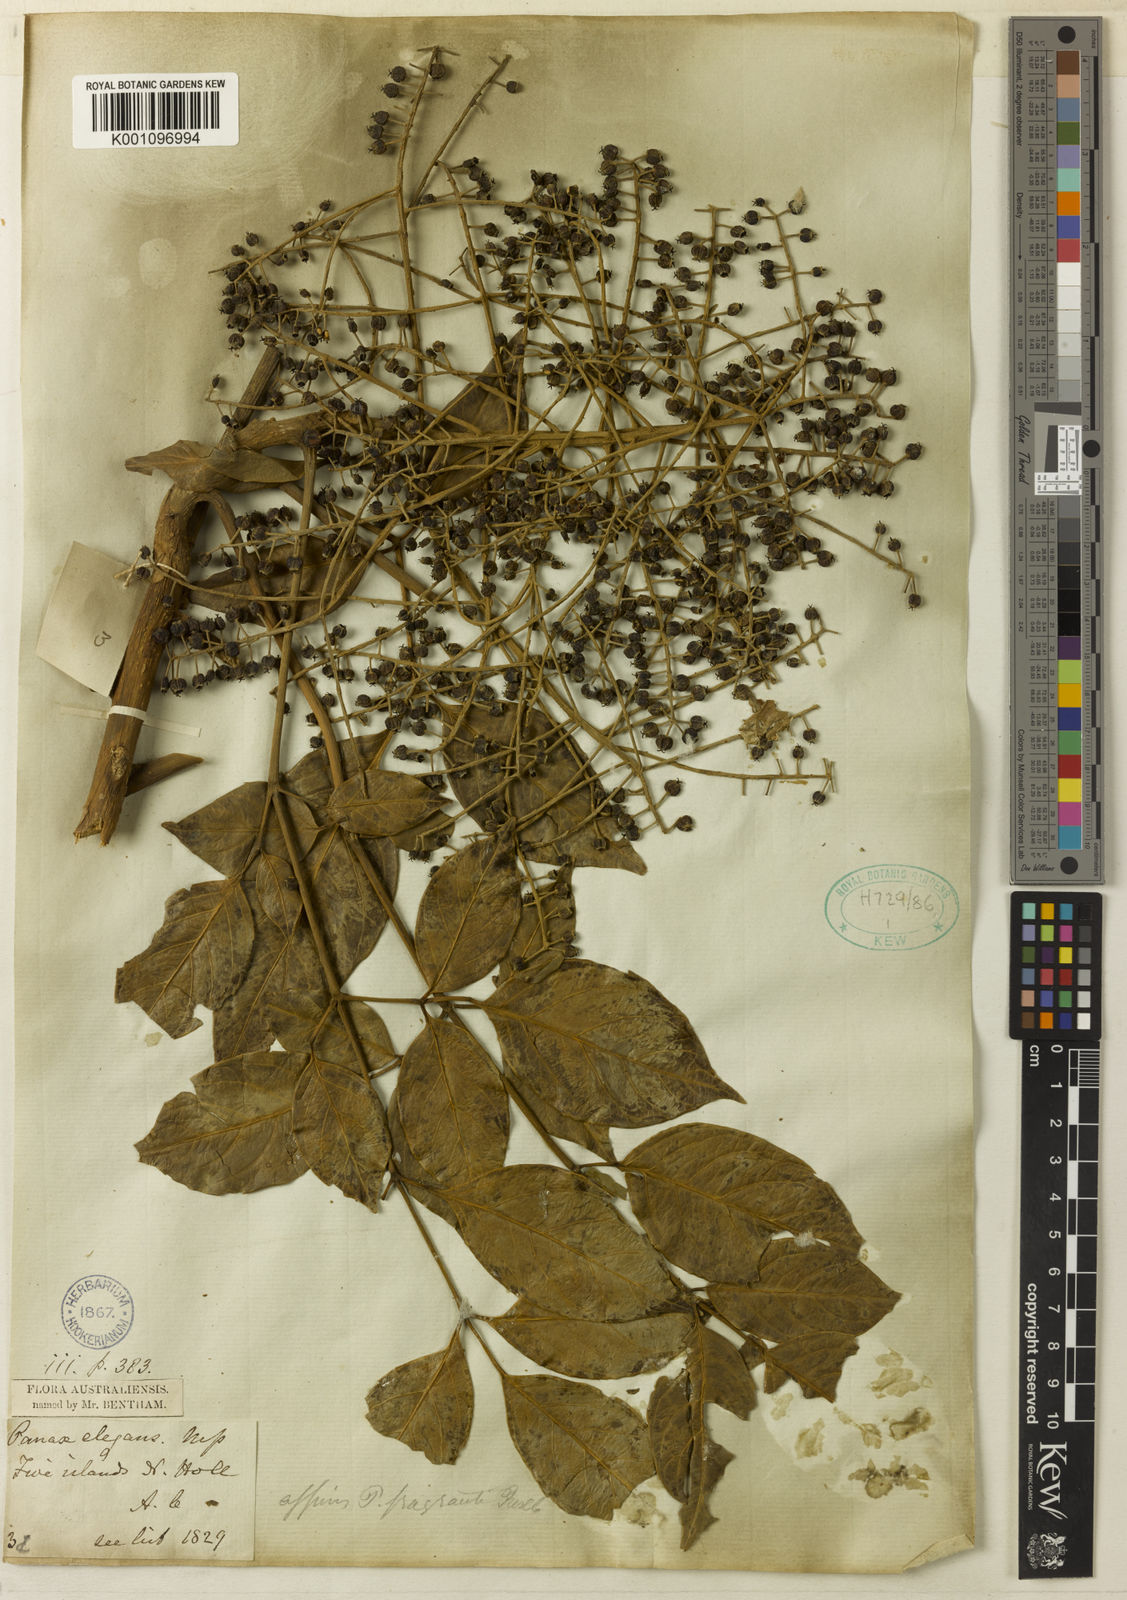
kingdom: Plantae
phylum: Tracheophyta
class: Magnoliopsida
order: Apiales
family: Araliaceae
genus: Polyscias
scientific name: Polyscias elegans
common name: Mowbulan whitewood
